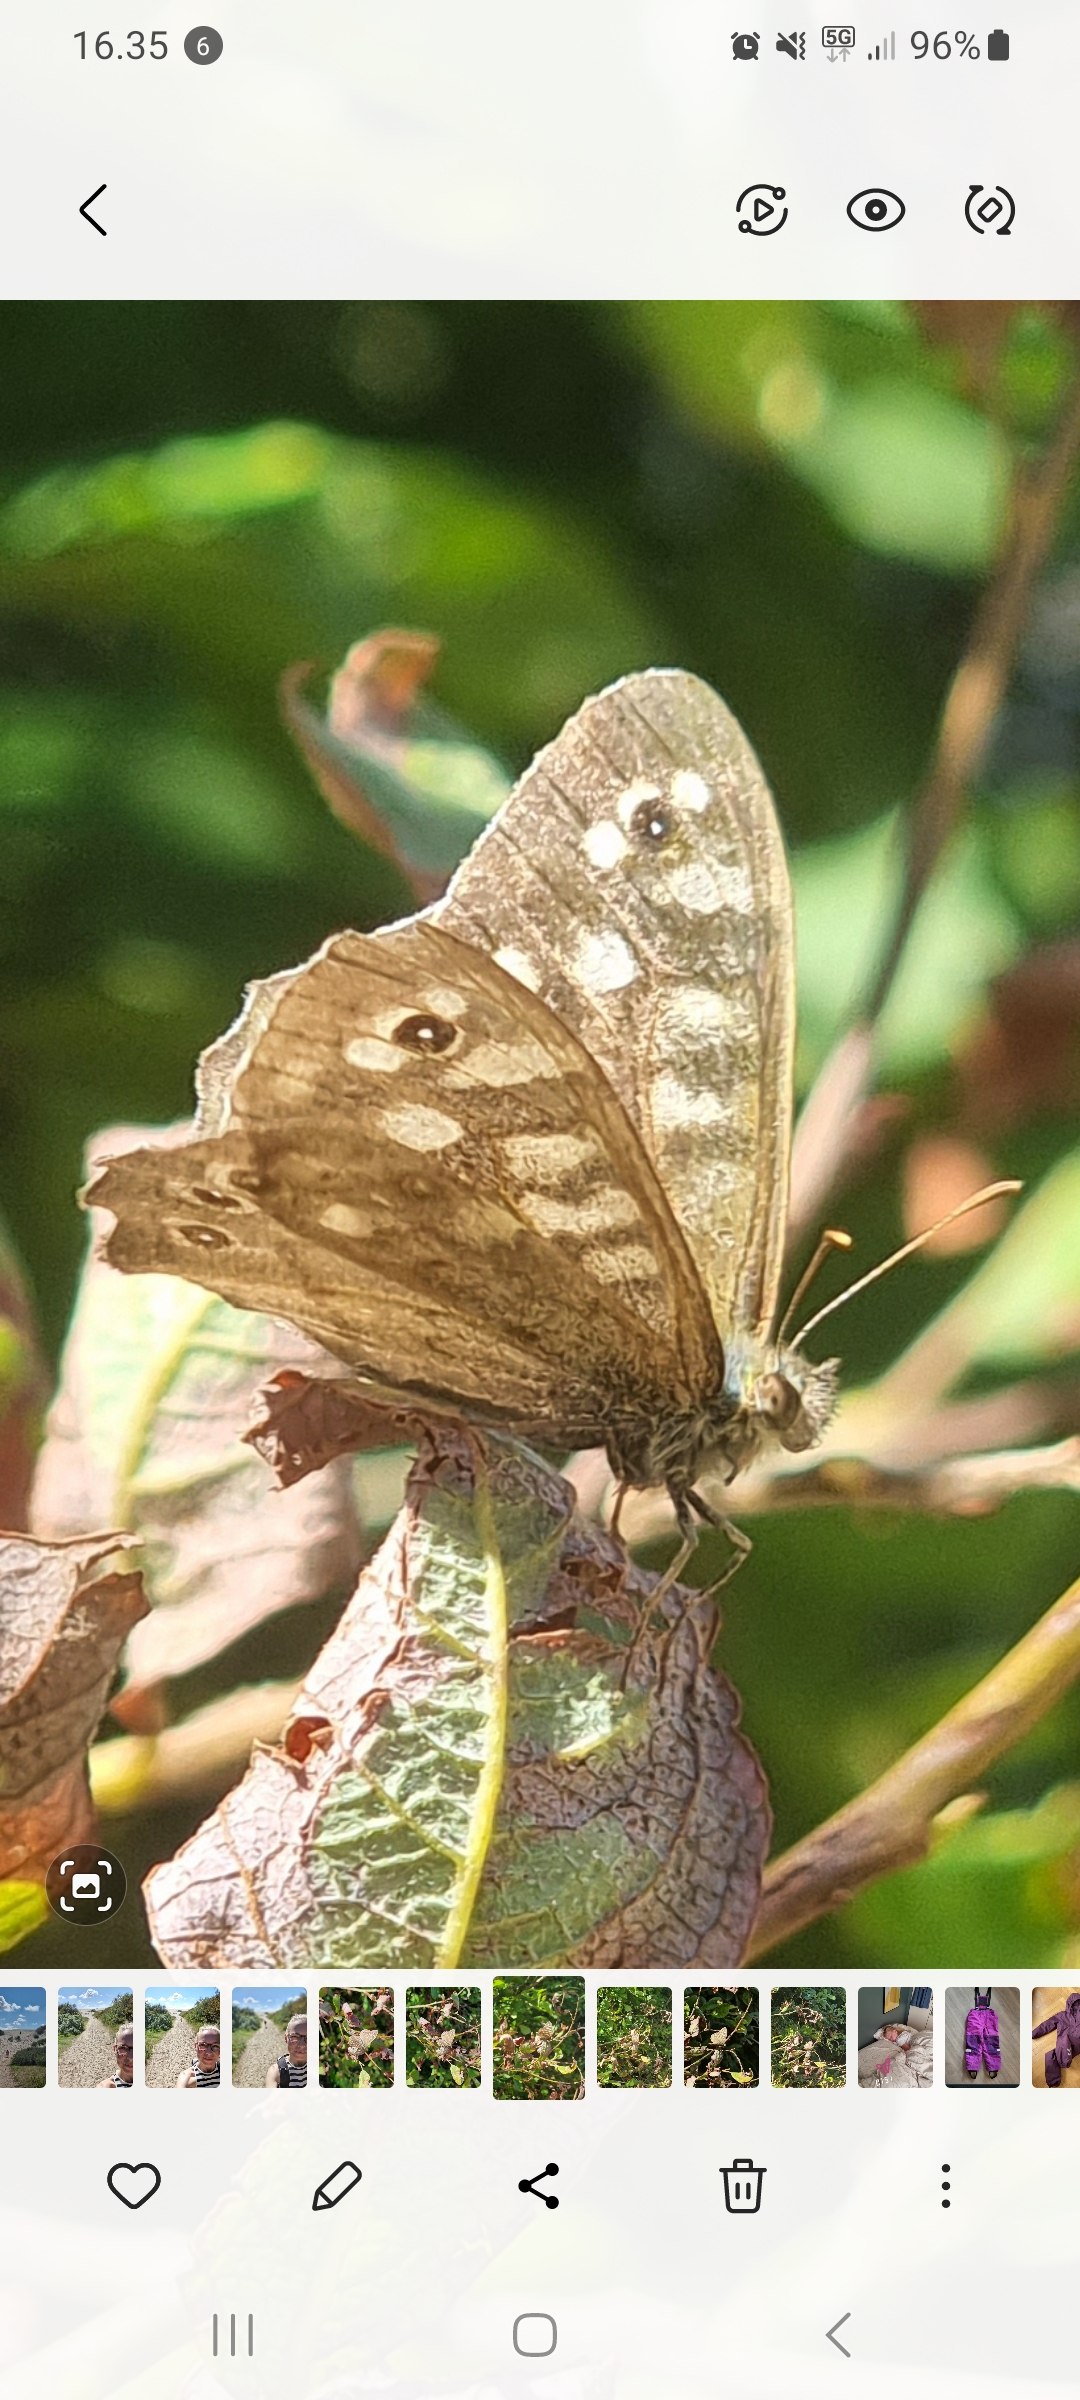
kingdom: Animalia
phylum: Arthropoda
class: Insecta
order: Lepidoptera
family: Nymphalidae
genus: Pararge
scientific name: Pararge aegeria
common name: Skovrandøje
